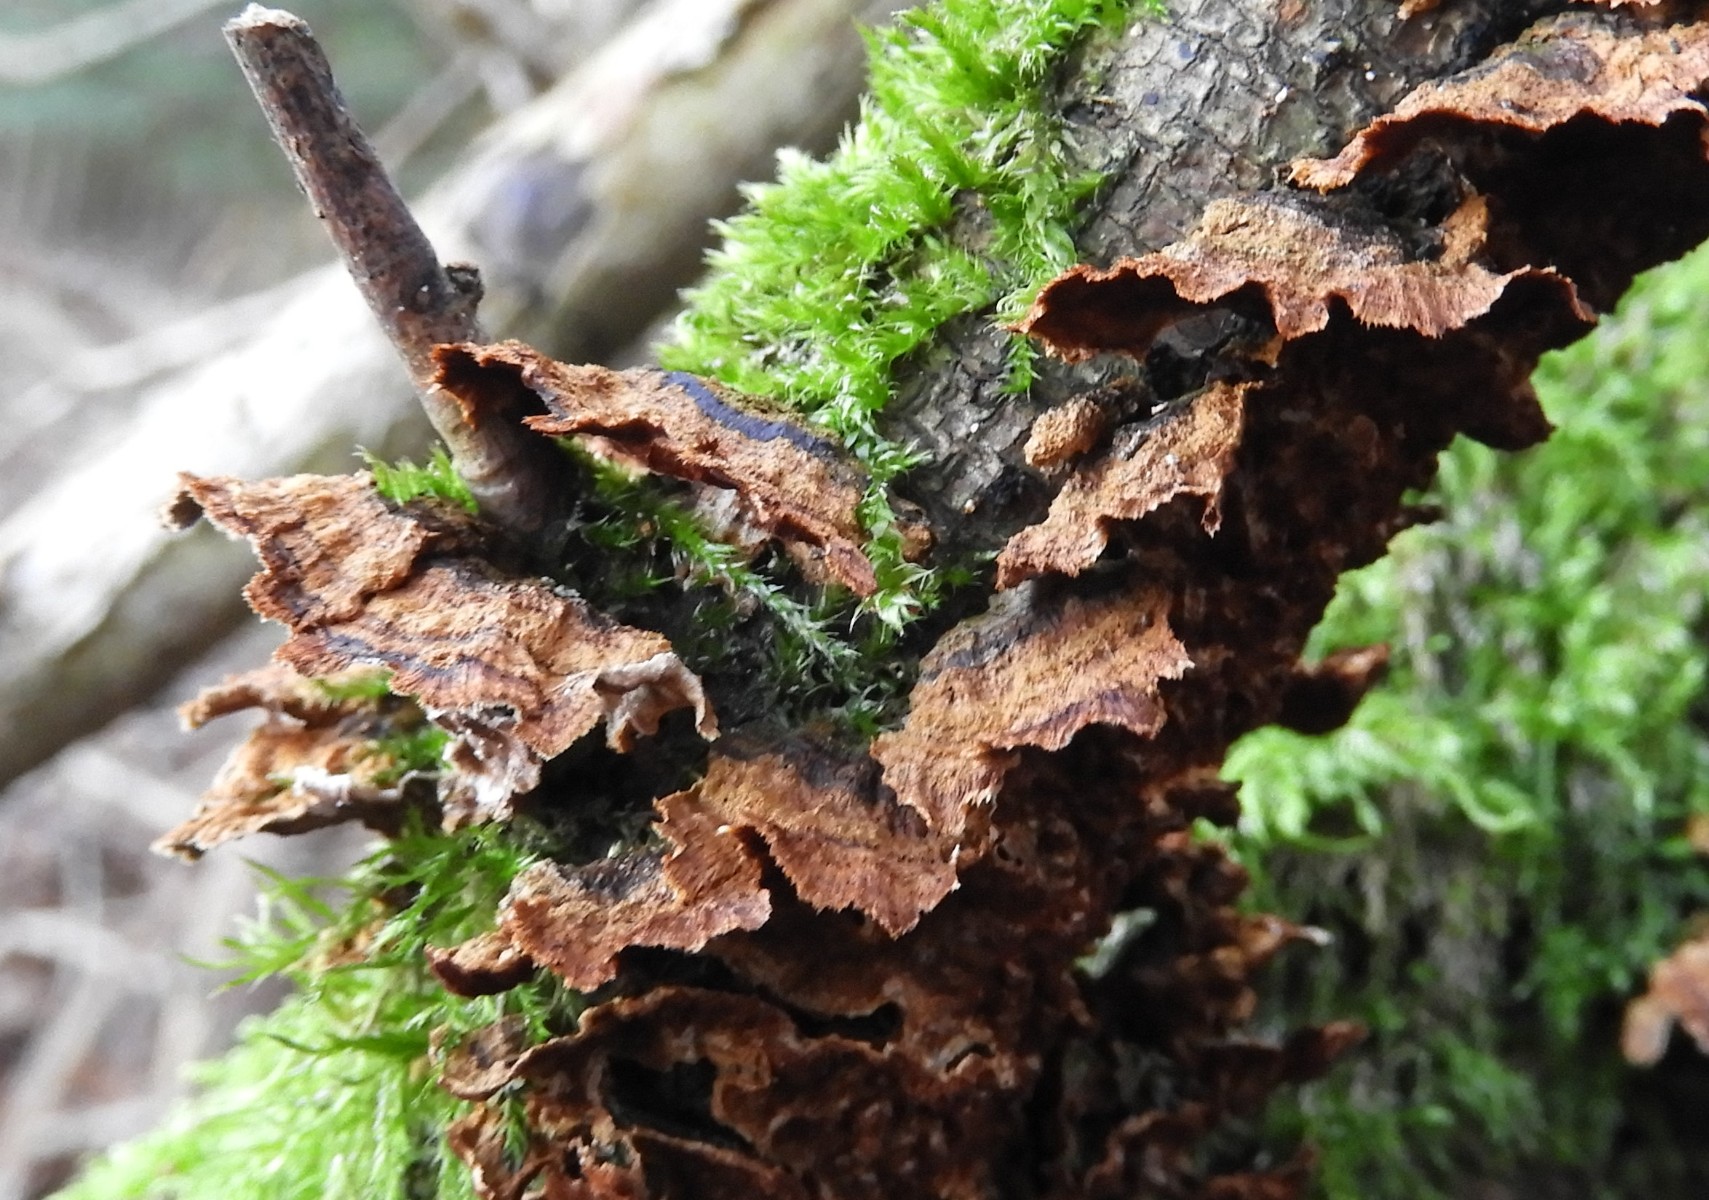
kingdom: Fungi
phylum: Basidiomycota
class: Agaricomycetes
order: Hymenochaetales
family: Hymenochaetaceae
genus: Hydnoporia
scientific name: Hydnoporia tabacina
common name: tobaksbrun ruslædersvamp
